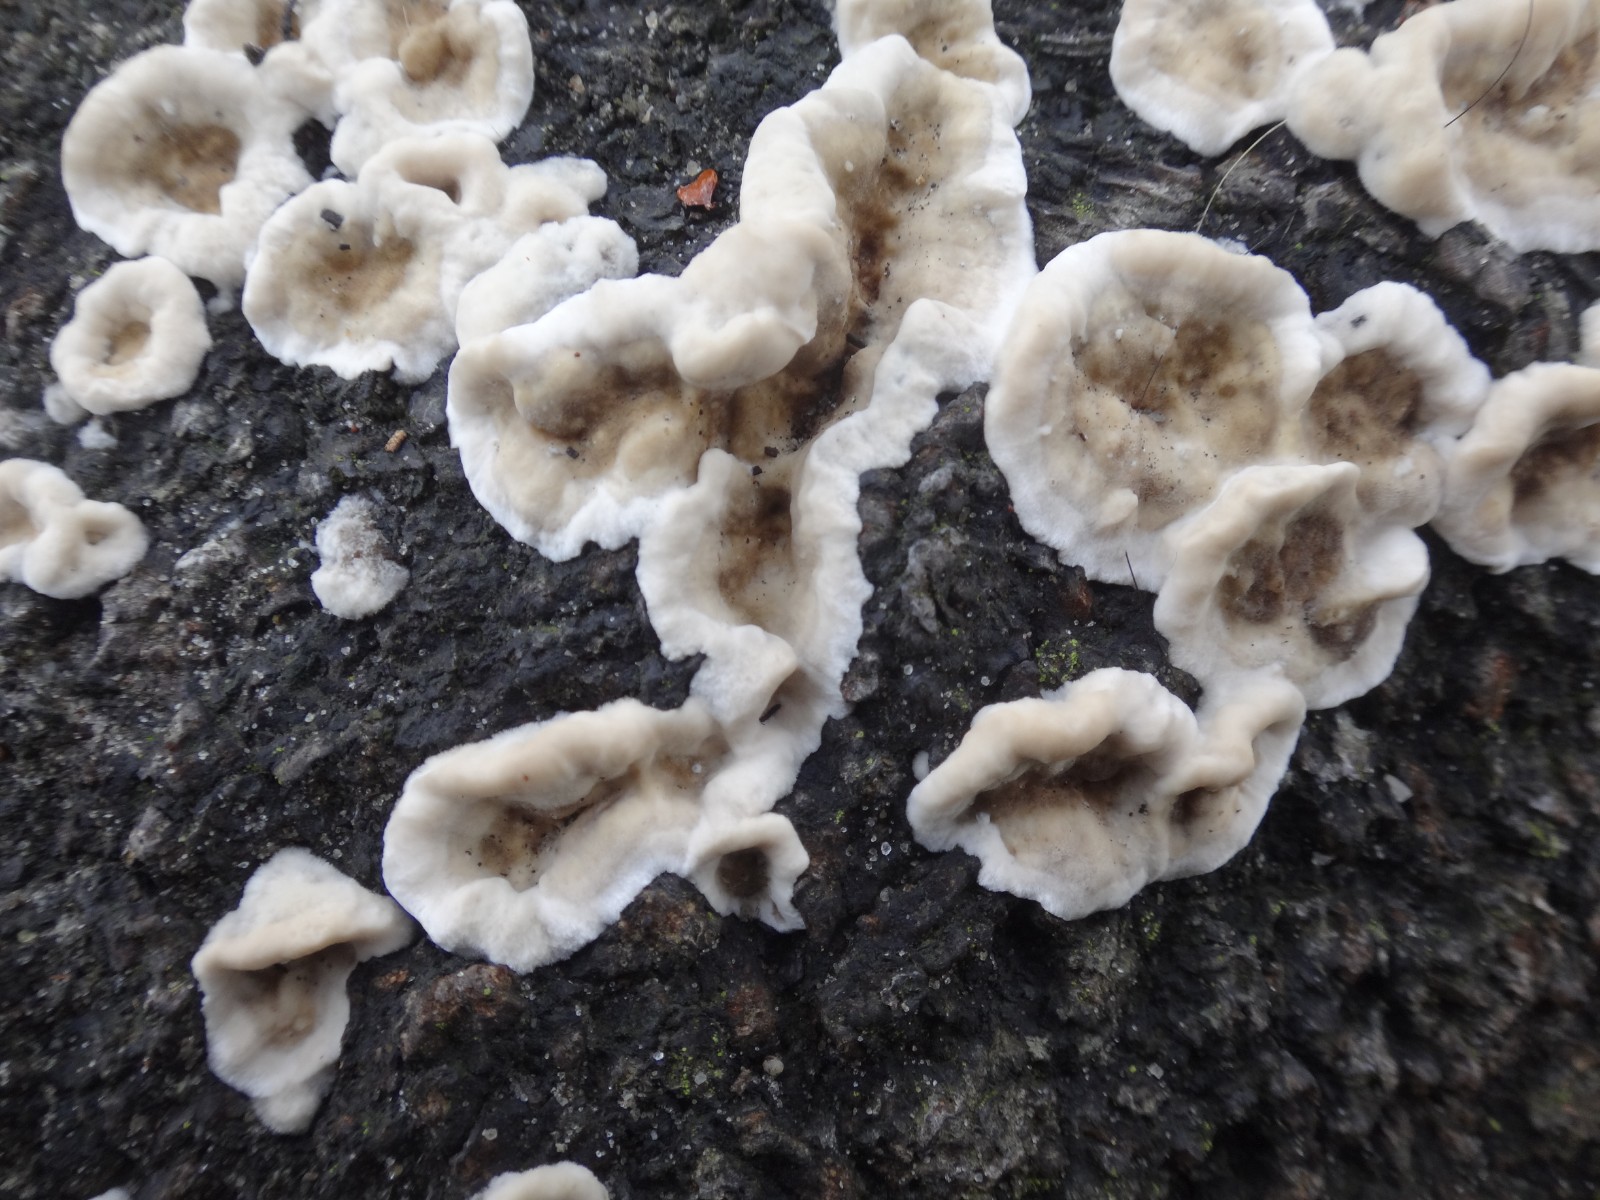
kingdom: Fungi
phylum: Basidiomycota
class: Agaricomycetes
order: Polyporales
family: Phanerochaetaceae
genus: Bjerkandera
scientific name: Bjerkandera adusta
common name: sveden sodporesvamp
